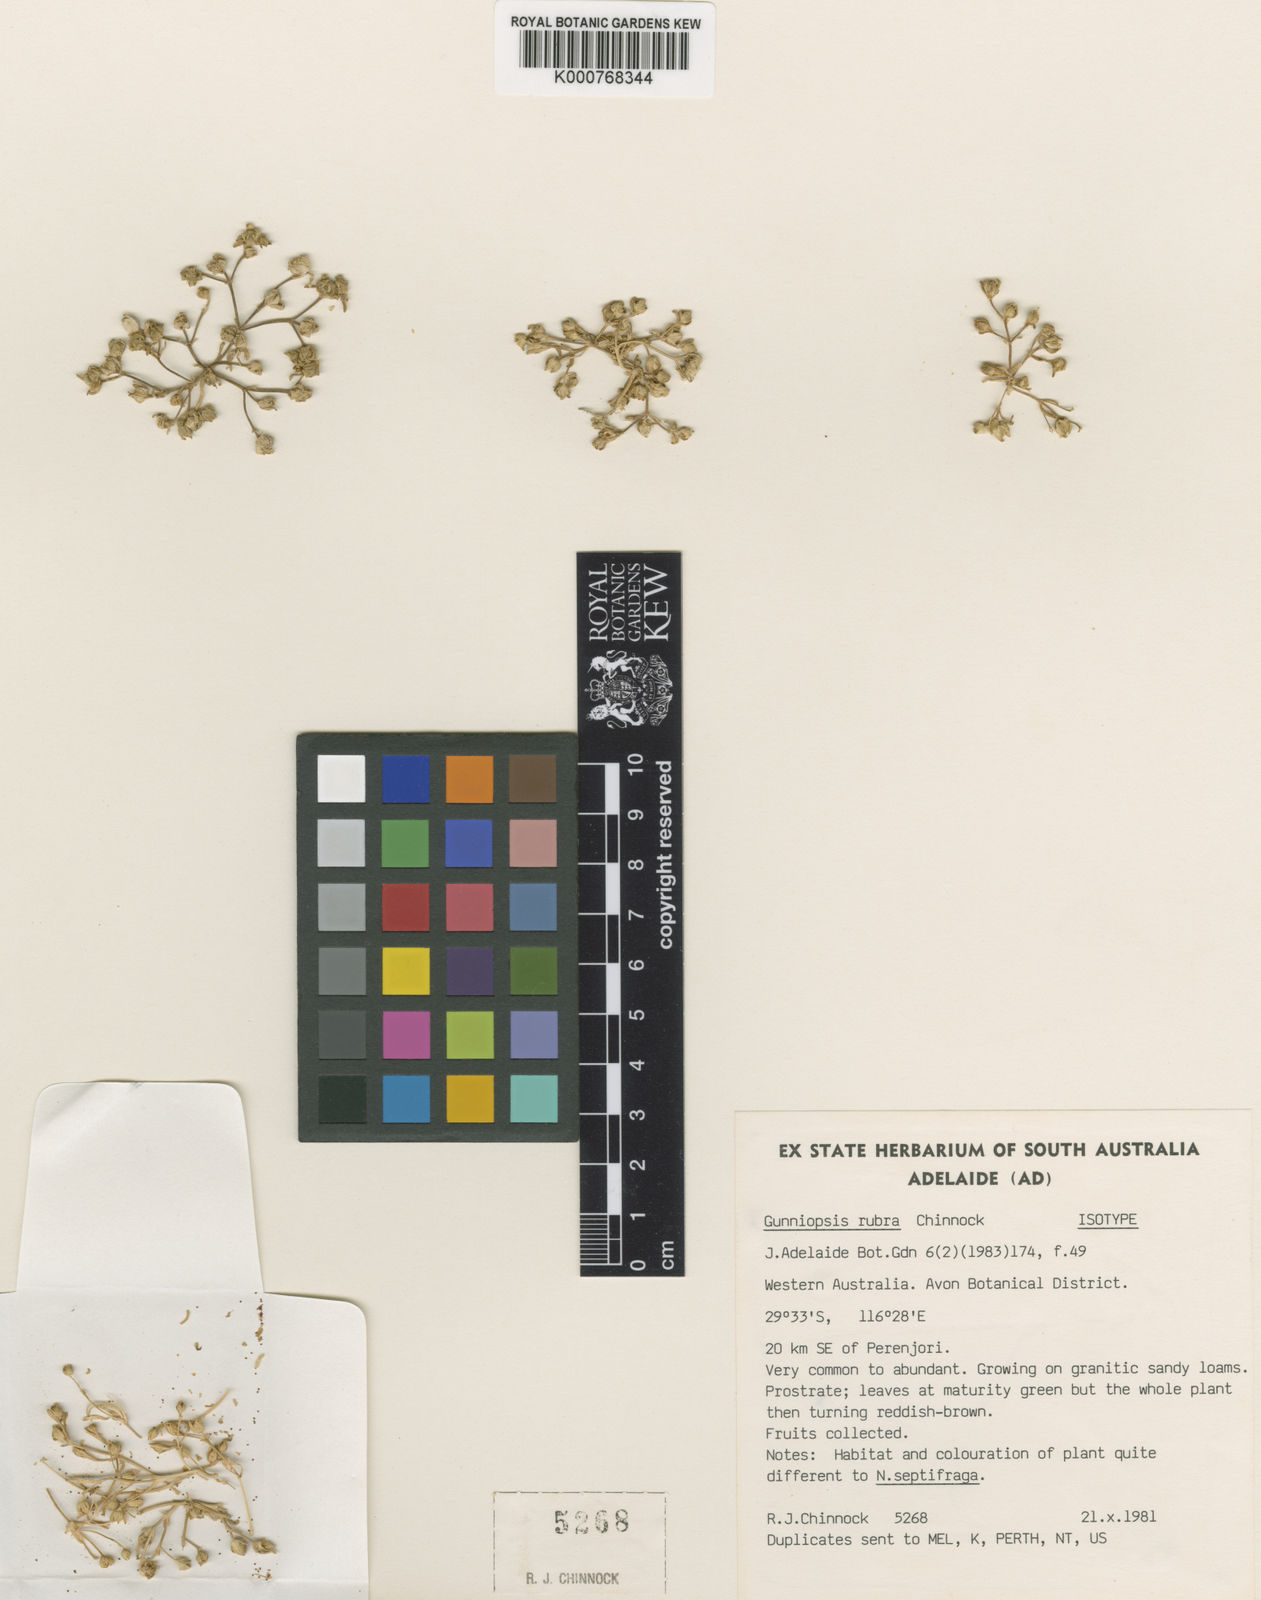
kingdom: Plantae
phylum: Tracheophyta
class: Magnoliopsida
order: Caryophyllales
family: Aizoaceae
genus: Gunniopsis
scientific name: Gunniopsis rubra
